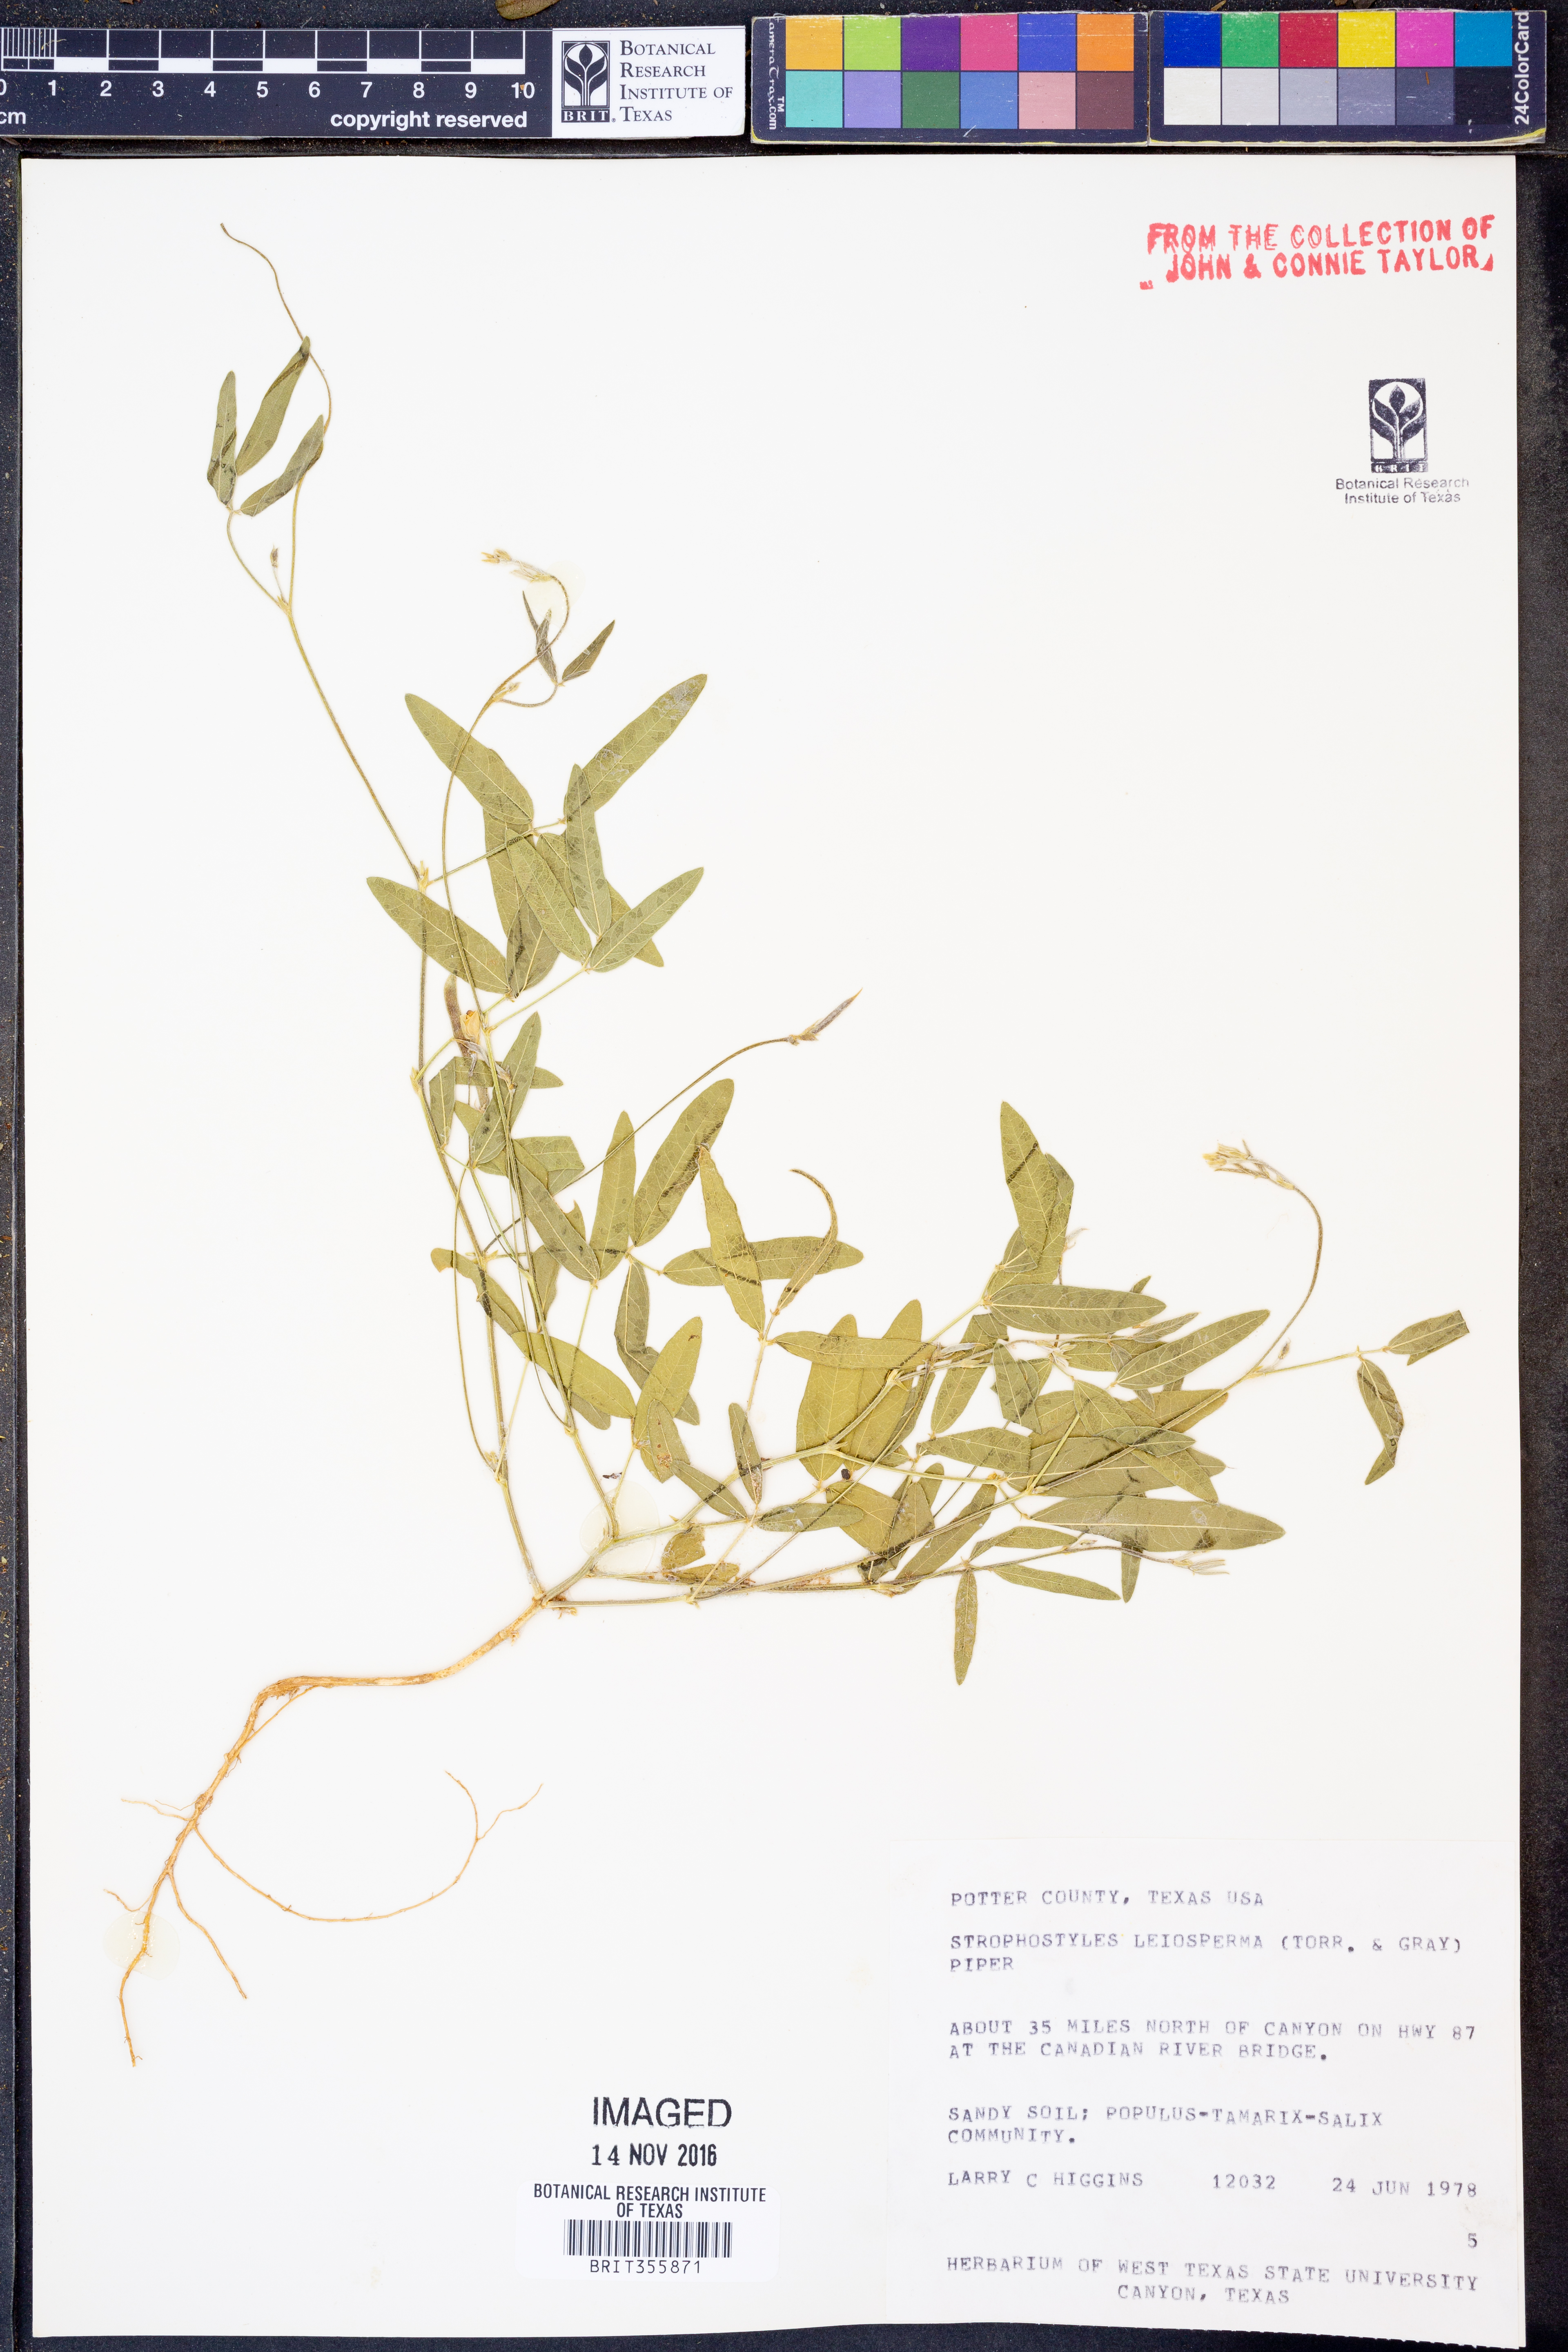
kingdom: Plantae
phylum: Tracheophyta
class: Magnoliopsida
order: Fabales
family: Fabaceae
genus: Strophostyles
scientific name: Strophostyles leiosperma
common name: Smooth-seed wild bean
